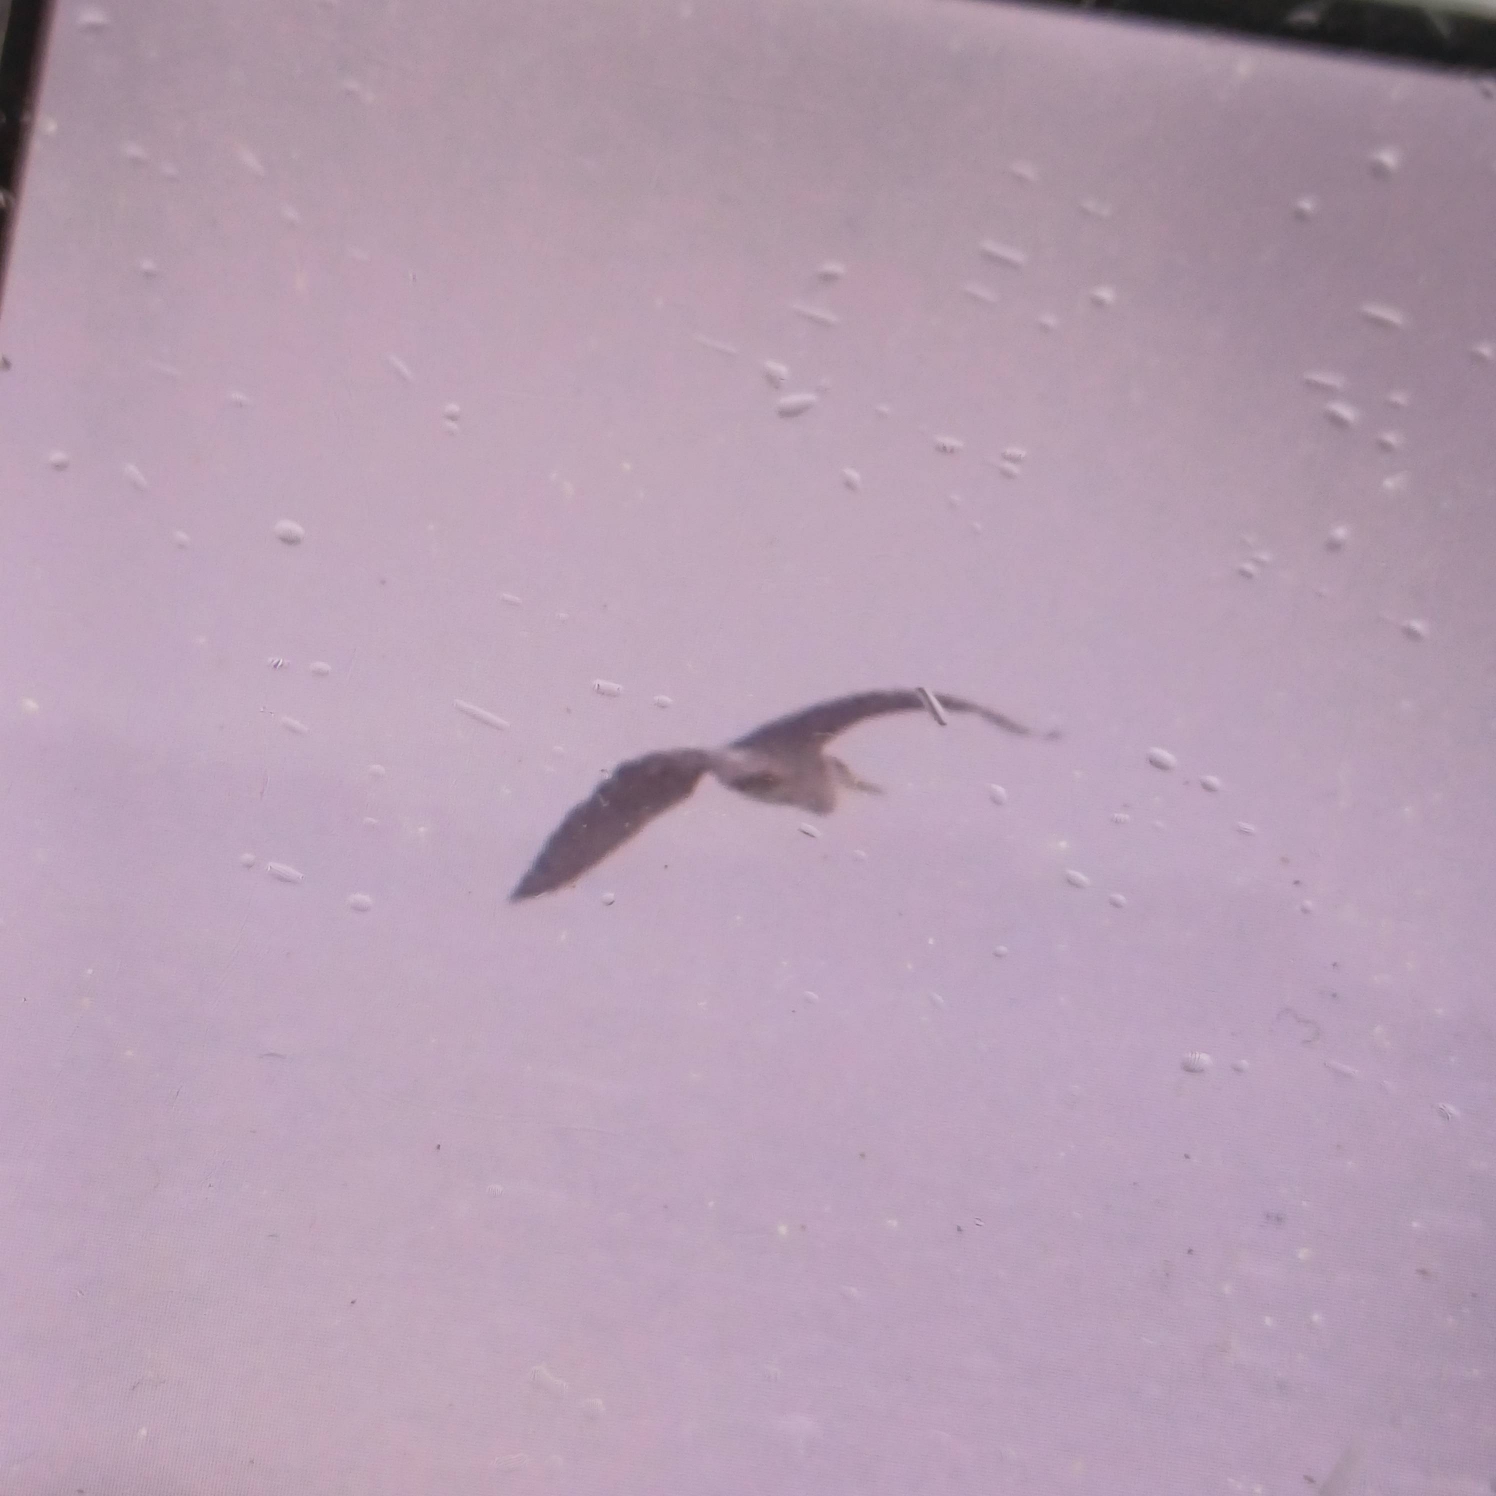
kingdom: Animalia
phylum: Chordata
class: Aves
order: Pelecaniformes
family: Ardeidae
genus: Ardea
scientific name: Ardea cinerea
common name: Fiskehejre
